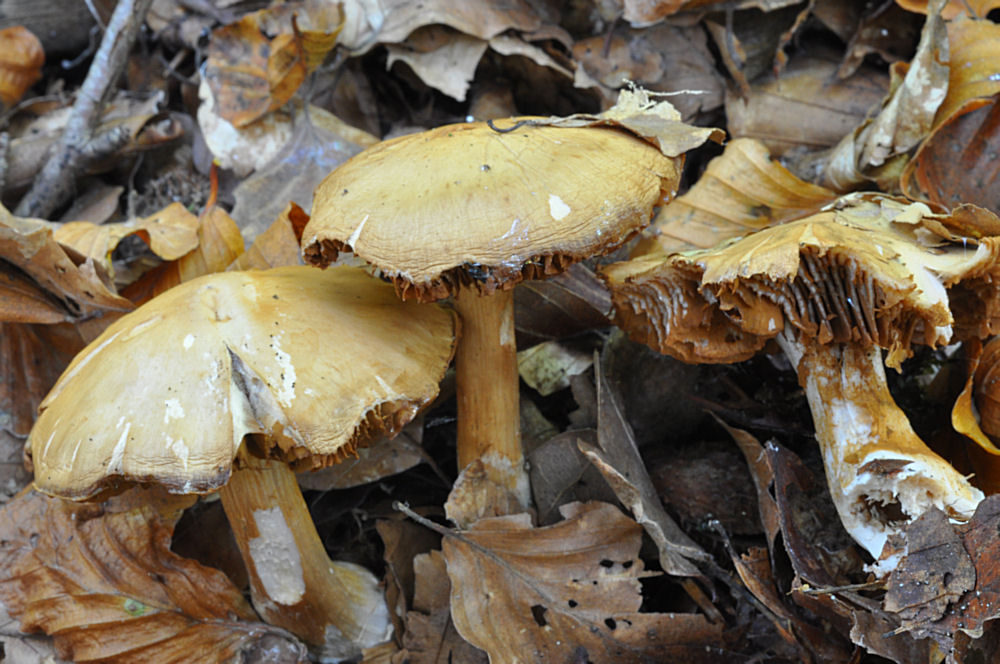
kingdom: Fungi
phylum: Basidiomycota
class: Agaricomycetes
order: Agaricales
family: Cortinariaceae
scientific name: Cortinariaceae
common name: slørhatfamilien
